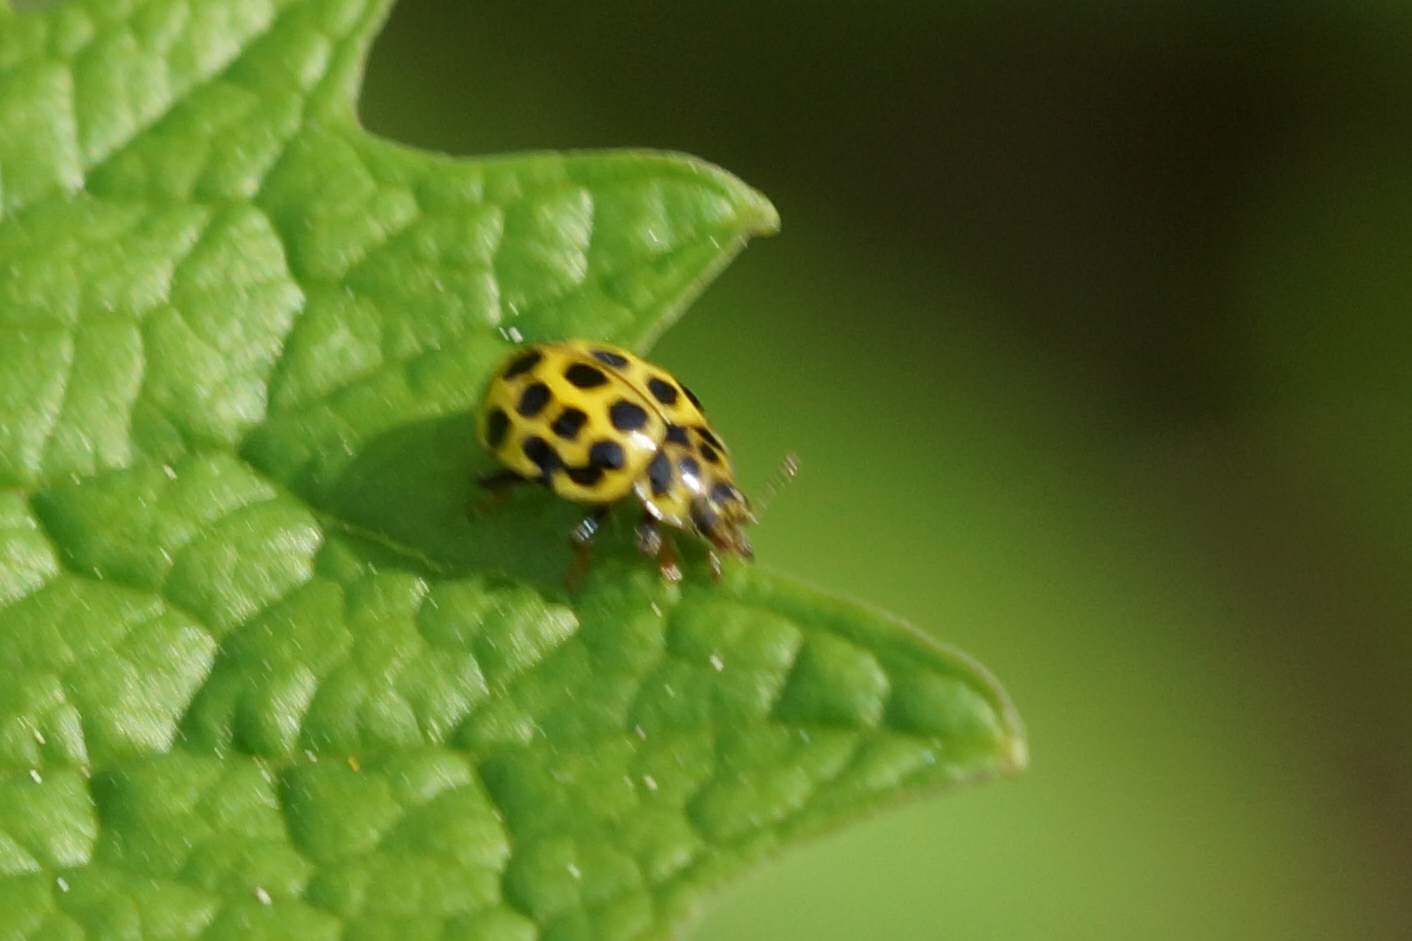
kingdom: Animalia
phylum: Arthropoda
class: Insecta
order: Coleoptera
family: Coccinellidae
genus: Psyllobora
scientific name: Psyllobora vigintiduopunctata
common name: Toogtyveplettet mariehøne
